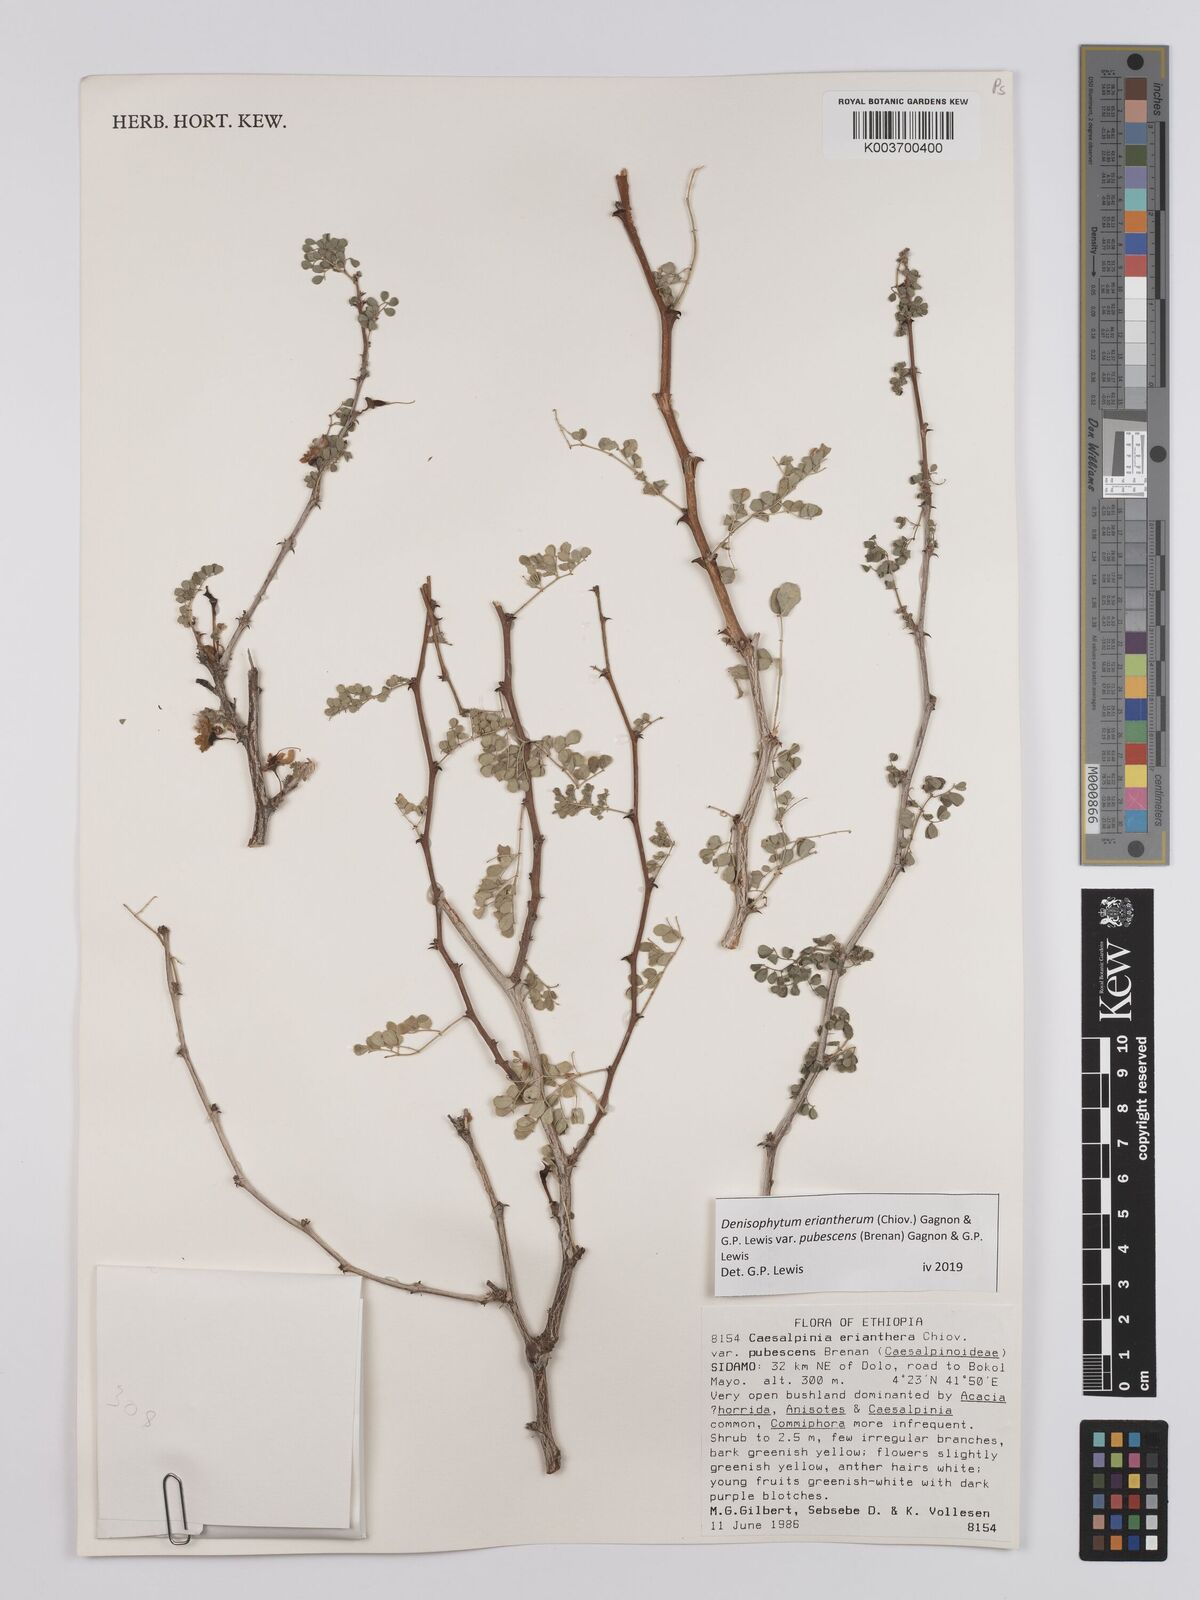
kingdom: Plantae
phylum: Tracheophyta
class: Magnoliopsida
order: Fabales
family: Fabaceae
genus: Denisophytum
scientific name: Denisophytum eriantherum
